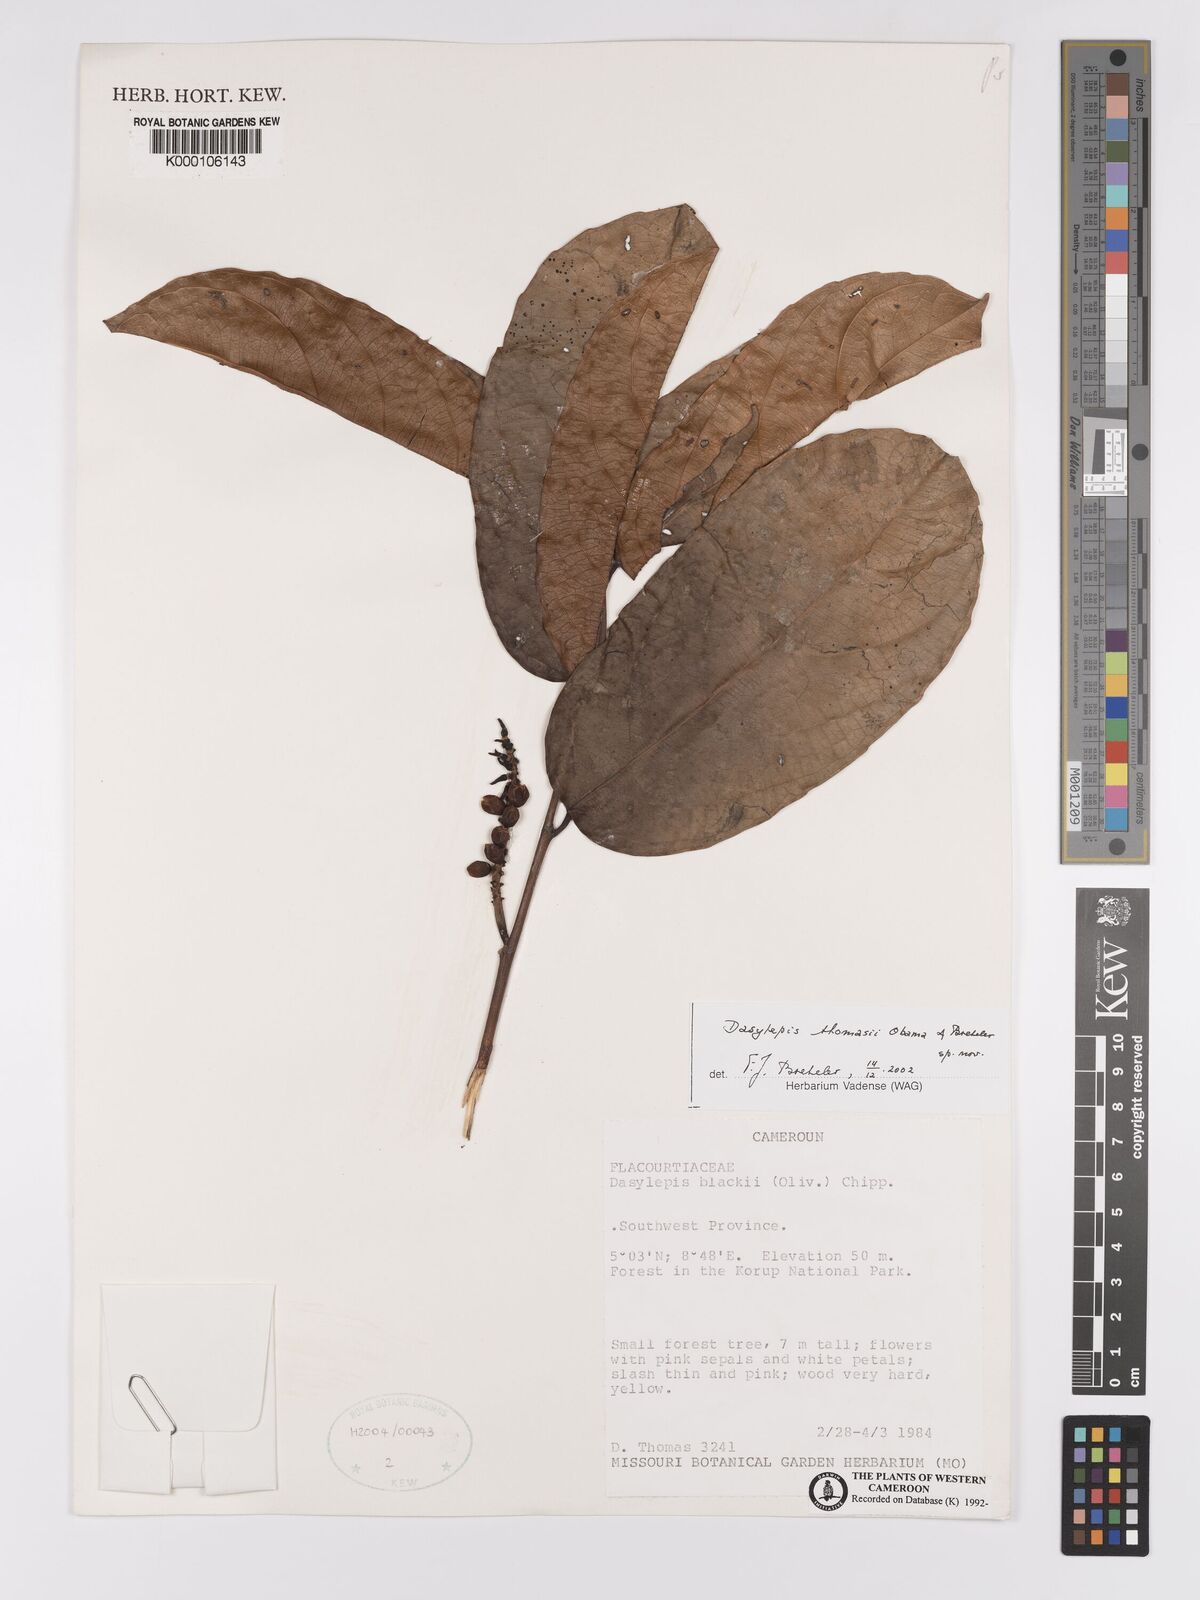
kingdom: Plantae
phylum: Tracheophyta
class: Magnoliopsida
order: Malpighiales
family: Achariaceae
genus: Dasylepis
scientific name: Dasylepis blackii
